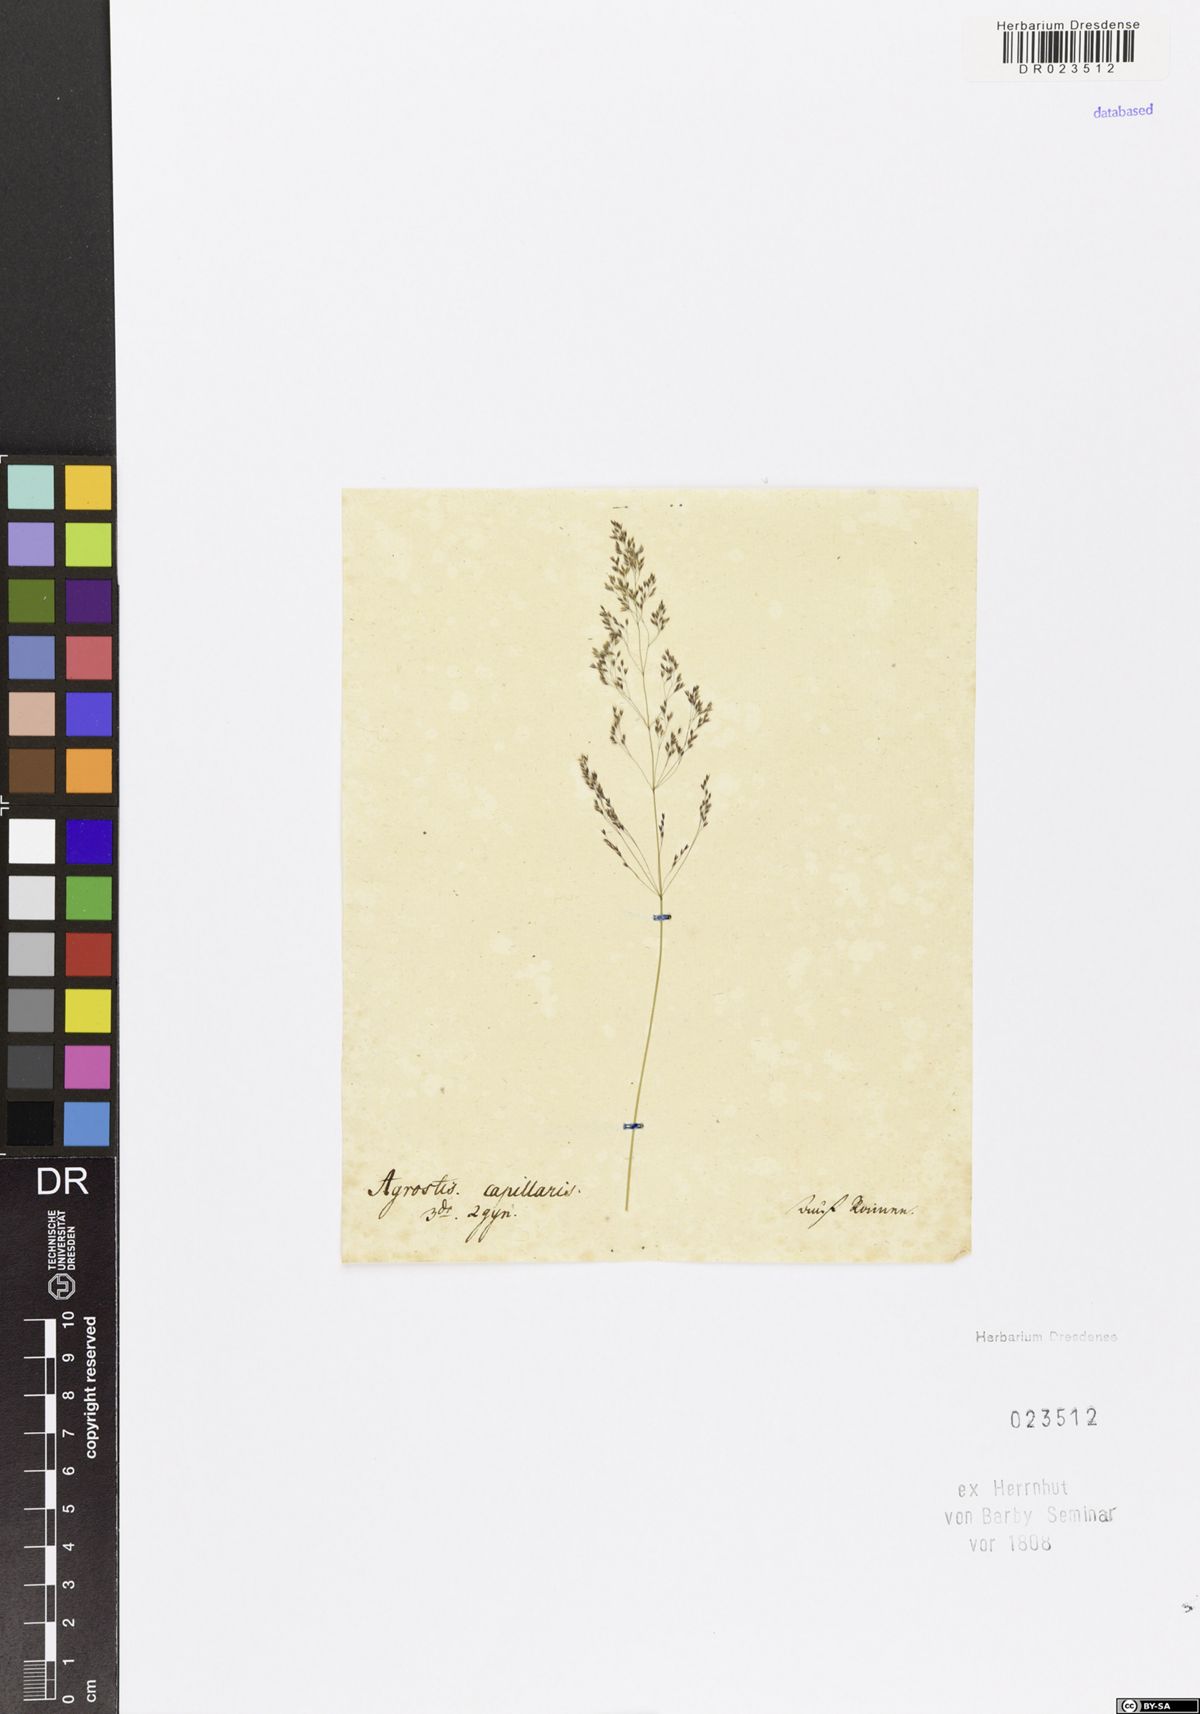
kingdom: Plantae
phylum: Tracheophyta
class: Liliopsida
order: Poales
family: Poaceae
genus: Agrostis
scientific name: Agrostis capillaris
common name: Colonial bentgrass
